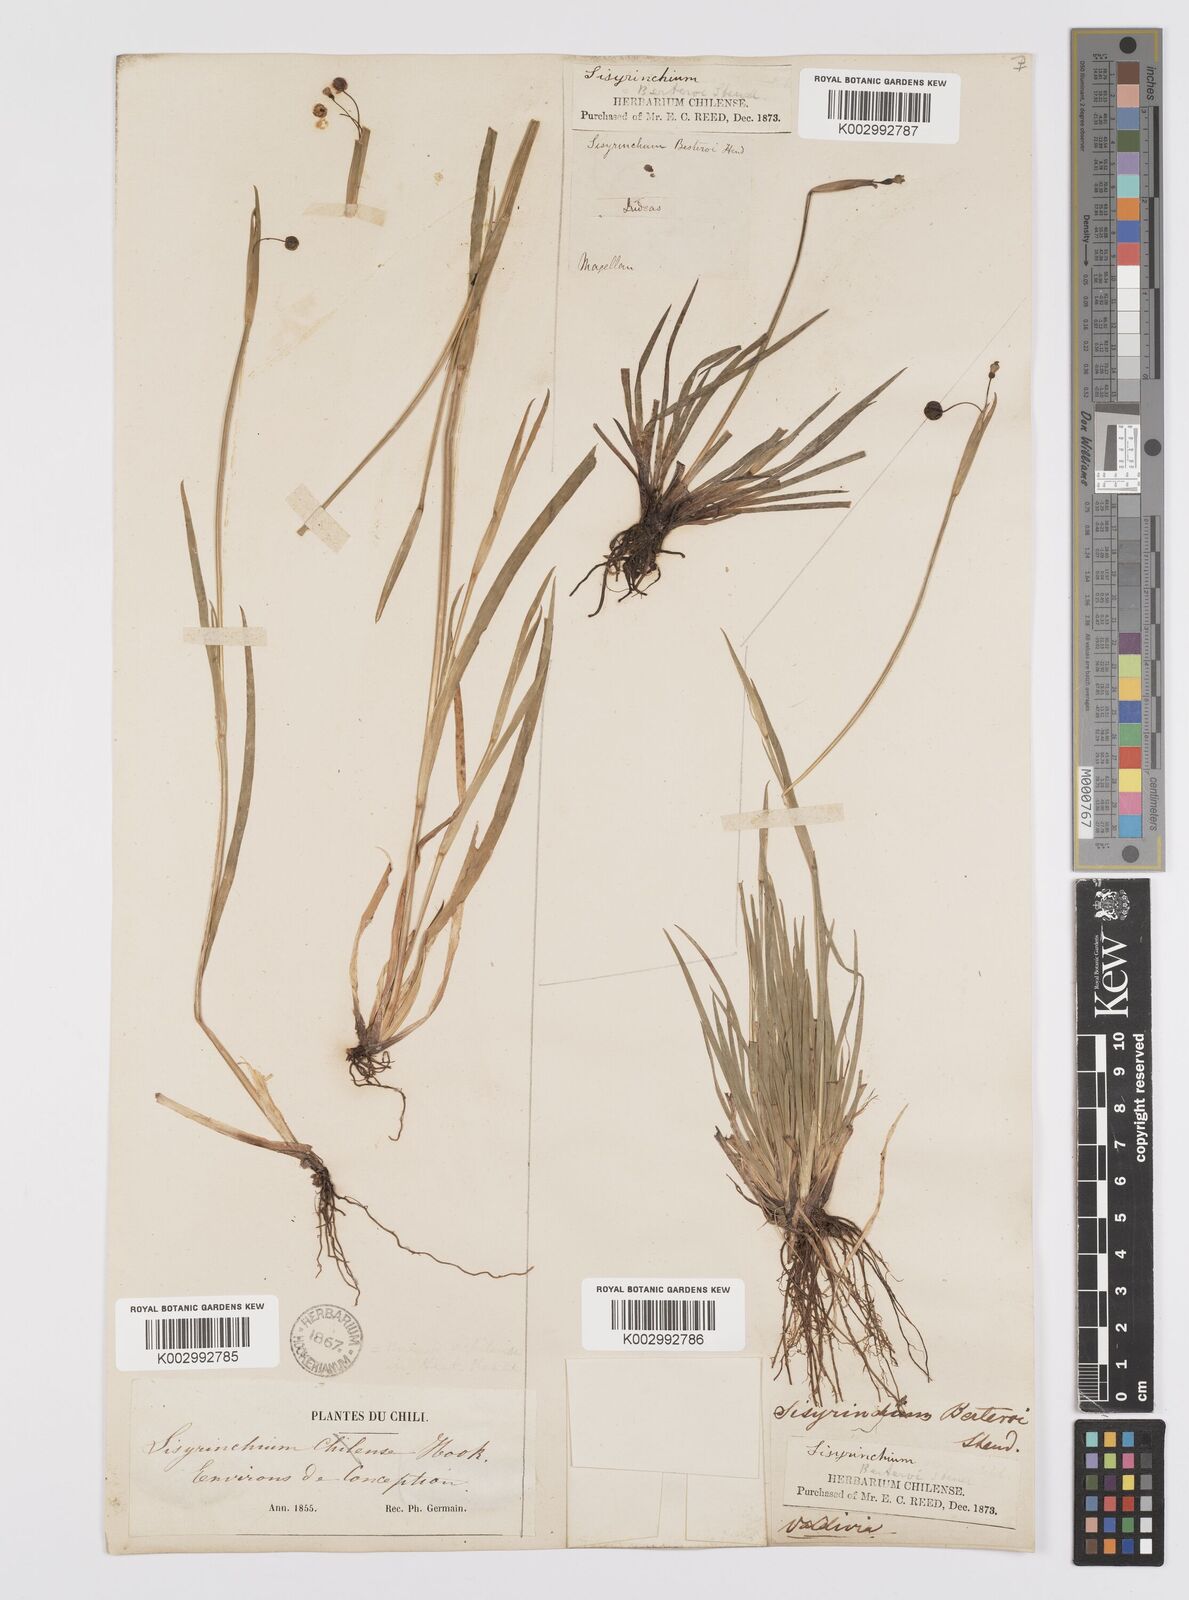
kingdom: Plantae
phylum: Tracheophyta
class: Liliopsida
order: Asparagales
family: Iridaceae
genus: Sisyrinchium
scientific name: Sisyrinchium scabrum
